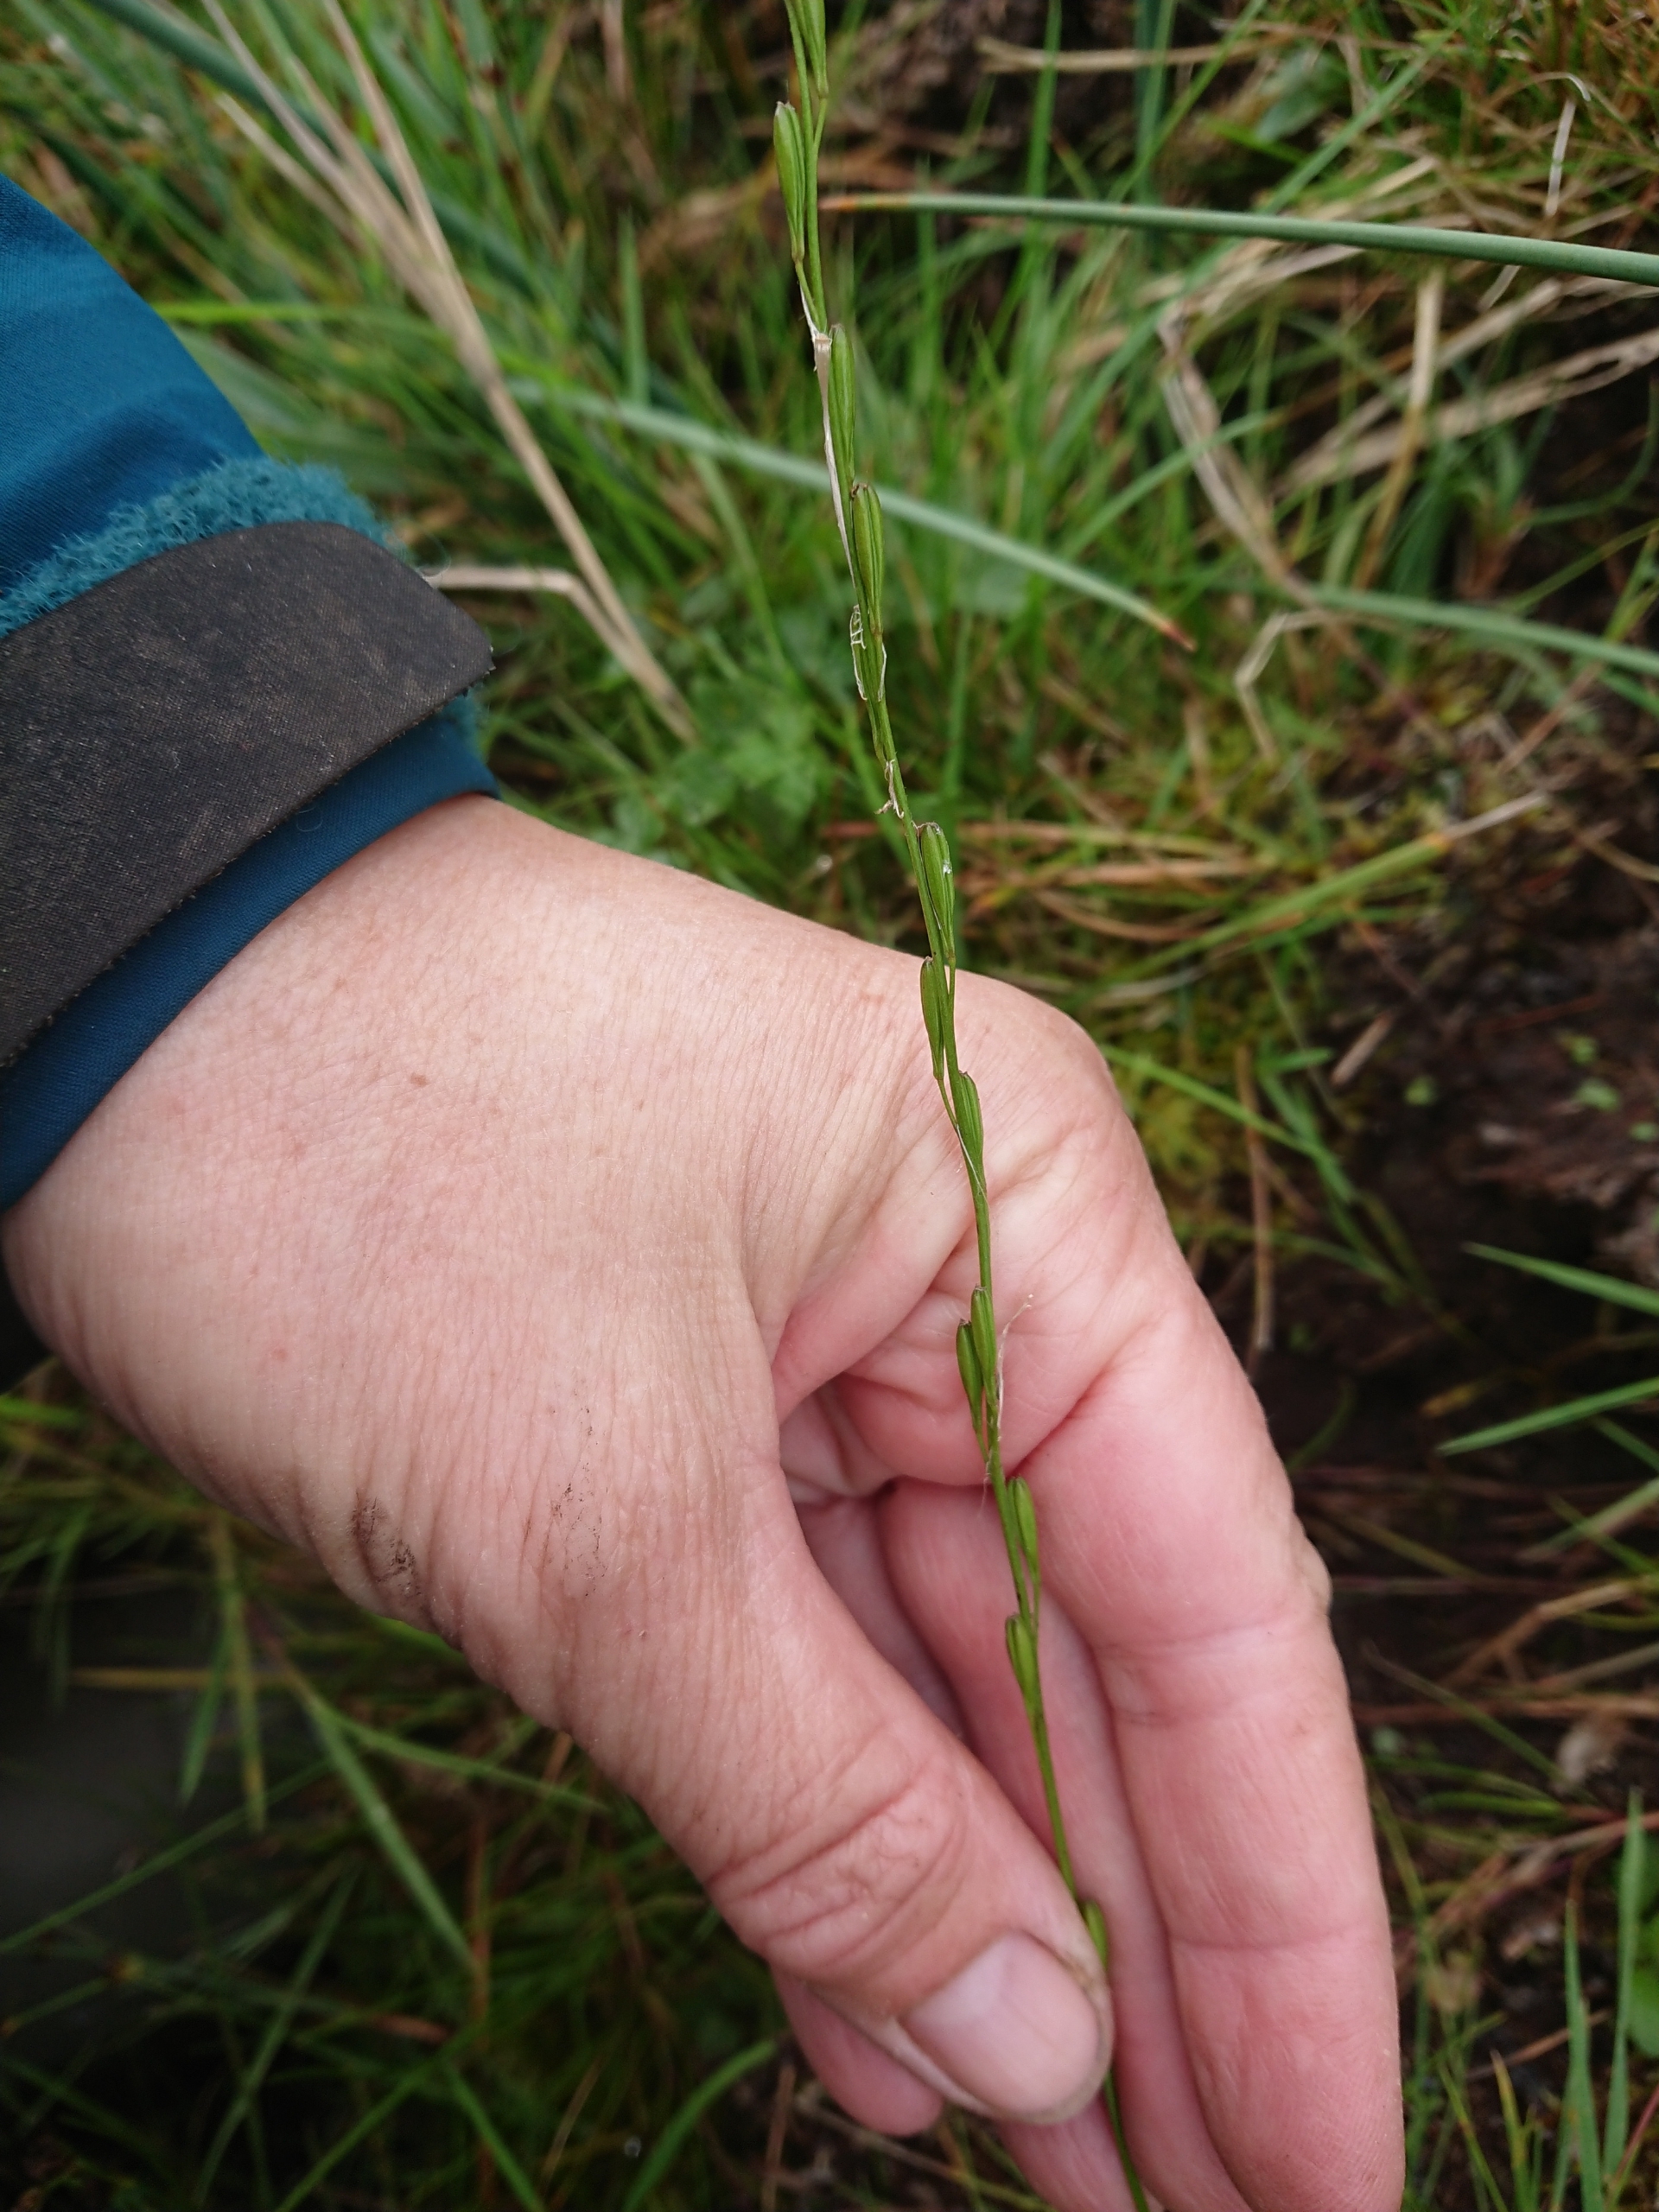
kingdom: Plantae
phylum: Tracheophyta
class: Liliopsida
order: Alismatales
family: Juncaginaceae
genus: Triglochin
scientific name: Triglochin palustris
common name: Kær-trehage
